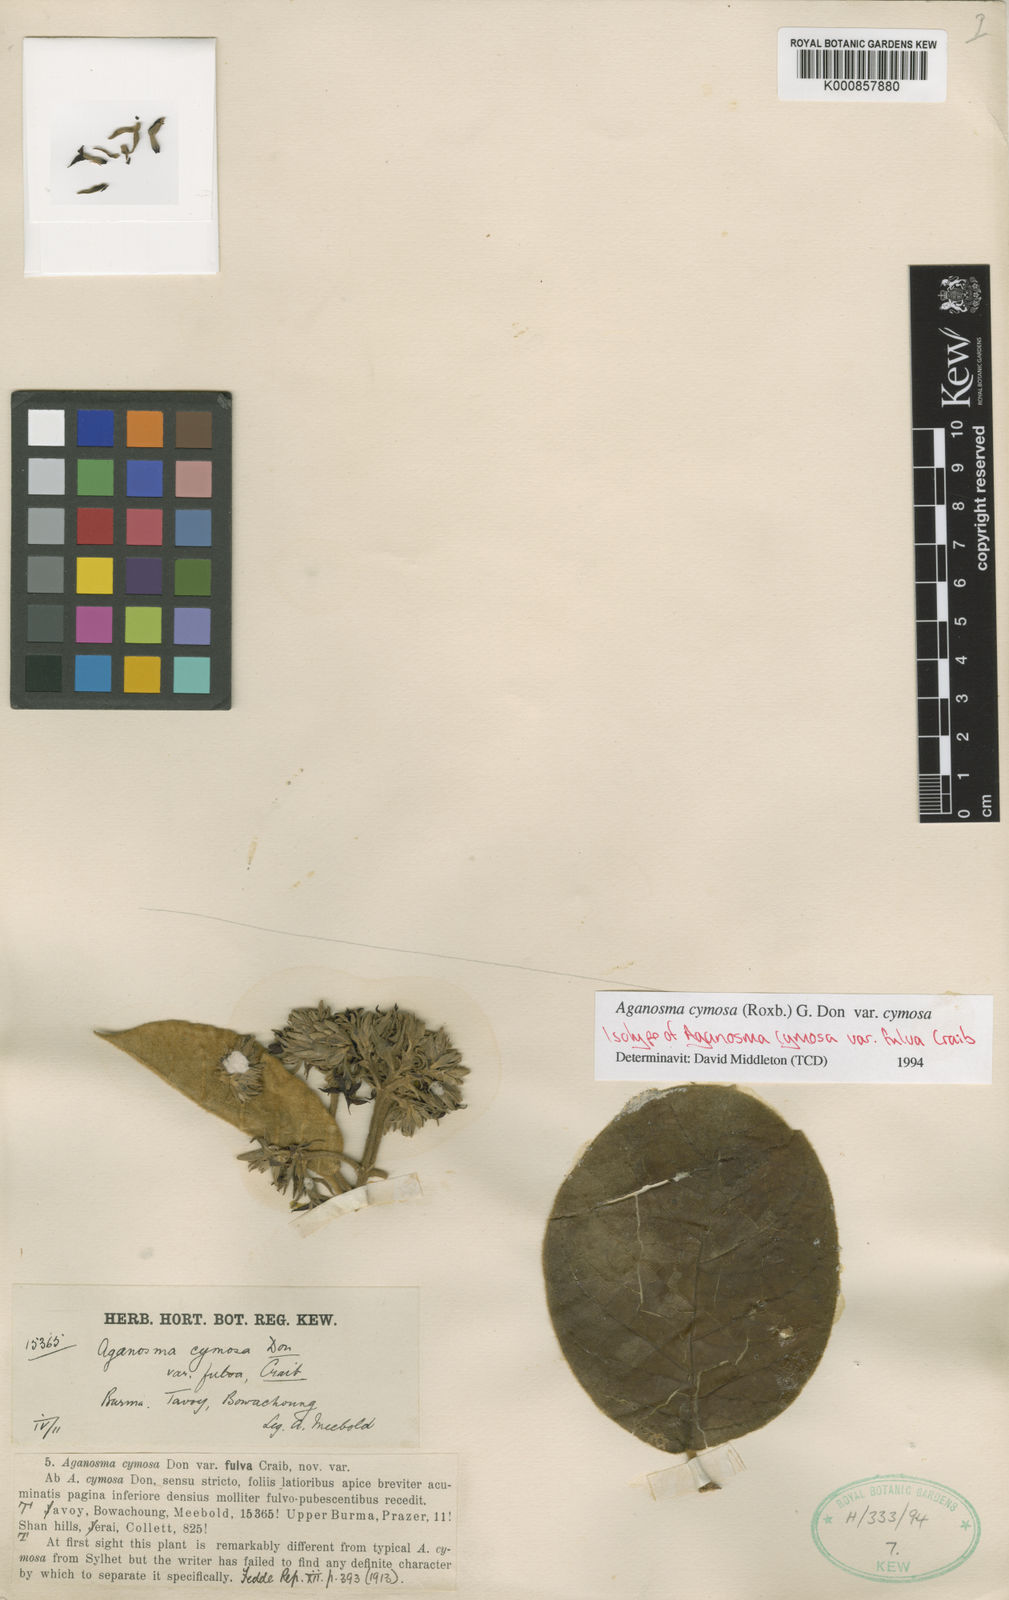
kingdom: Plantae
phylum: Tracheophyta
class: Magnoliopsida
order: Gentianales
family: Apocynaceae
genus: Aganosma
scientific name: Aganosma cymosa
